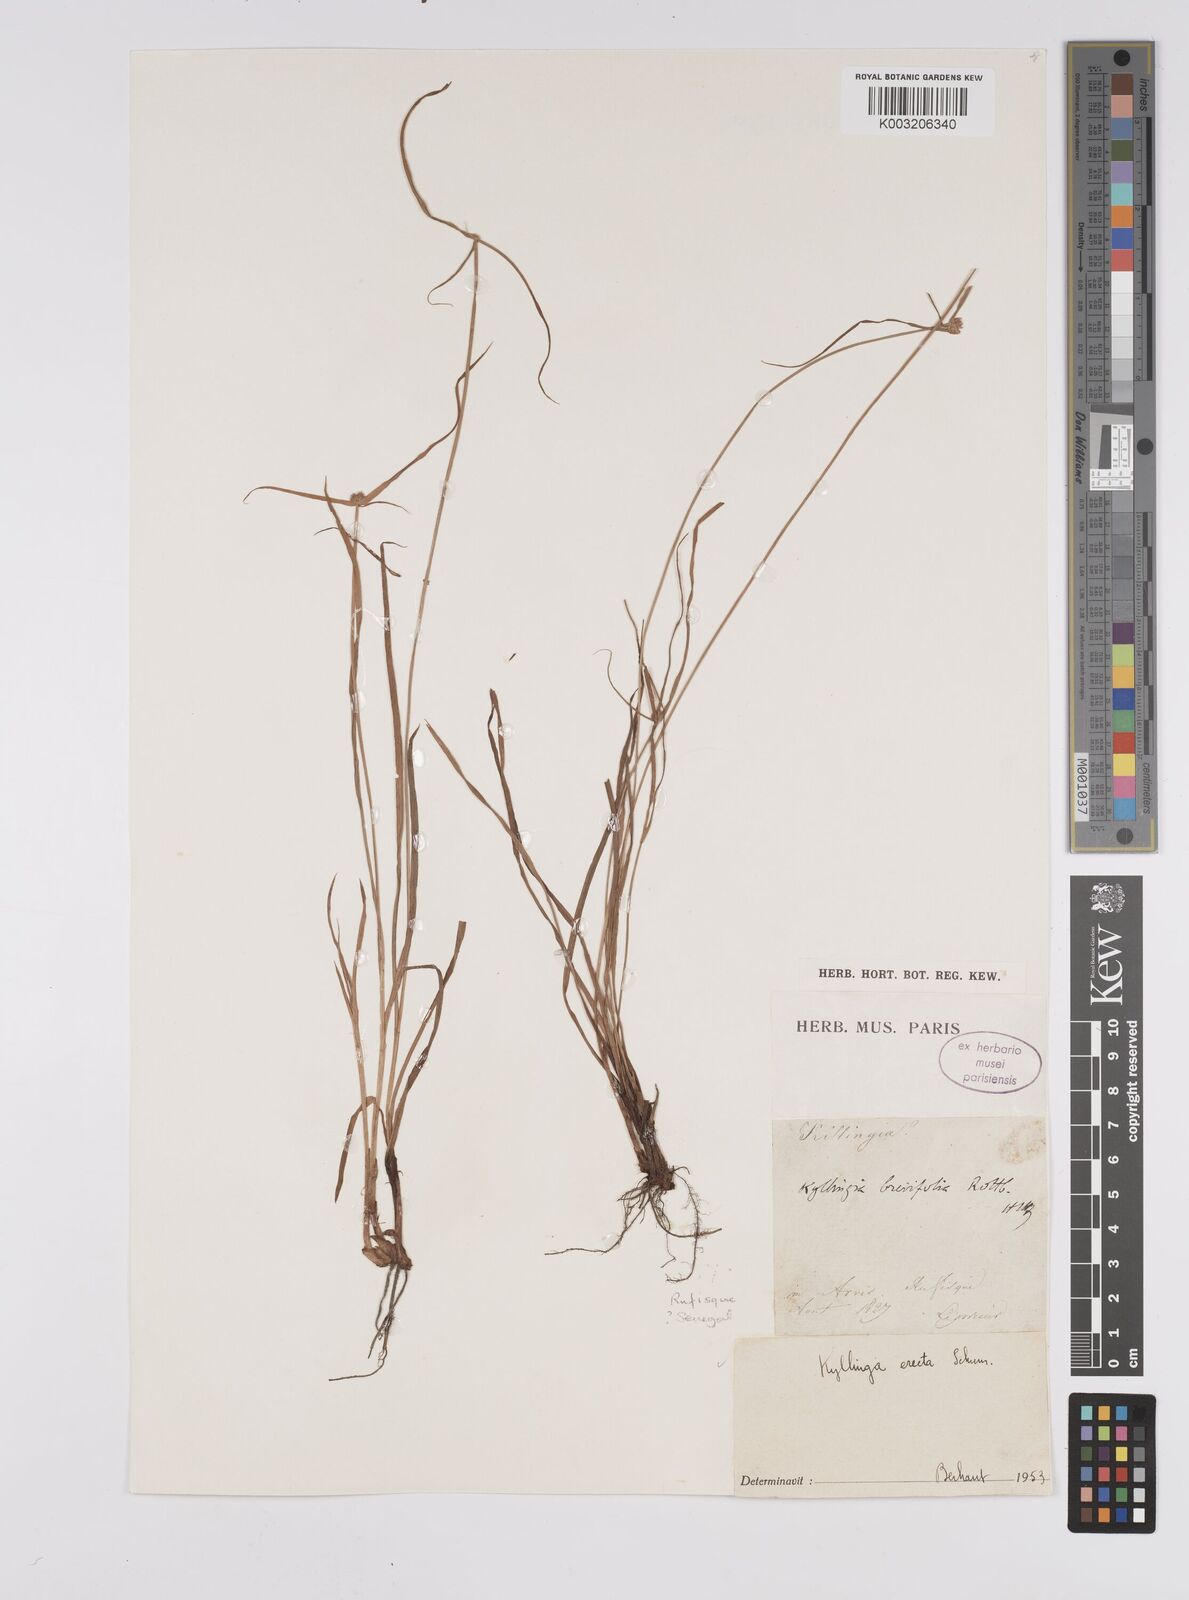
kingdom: Plantae
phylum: Tracheophyta
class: Liliopsida
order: Poales
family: Cyperaceae
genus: Cyperus
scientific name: Cyperus erectus
